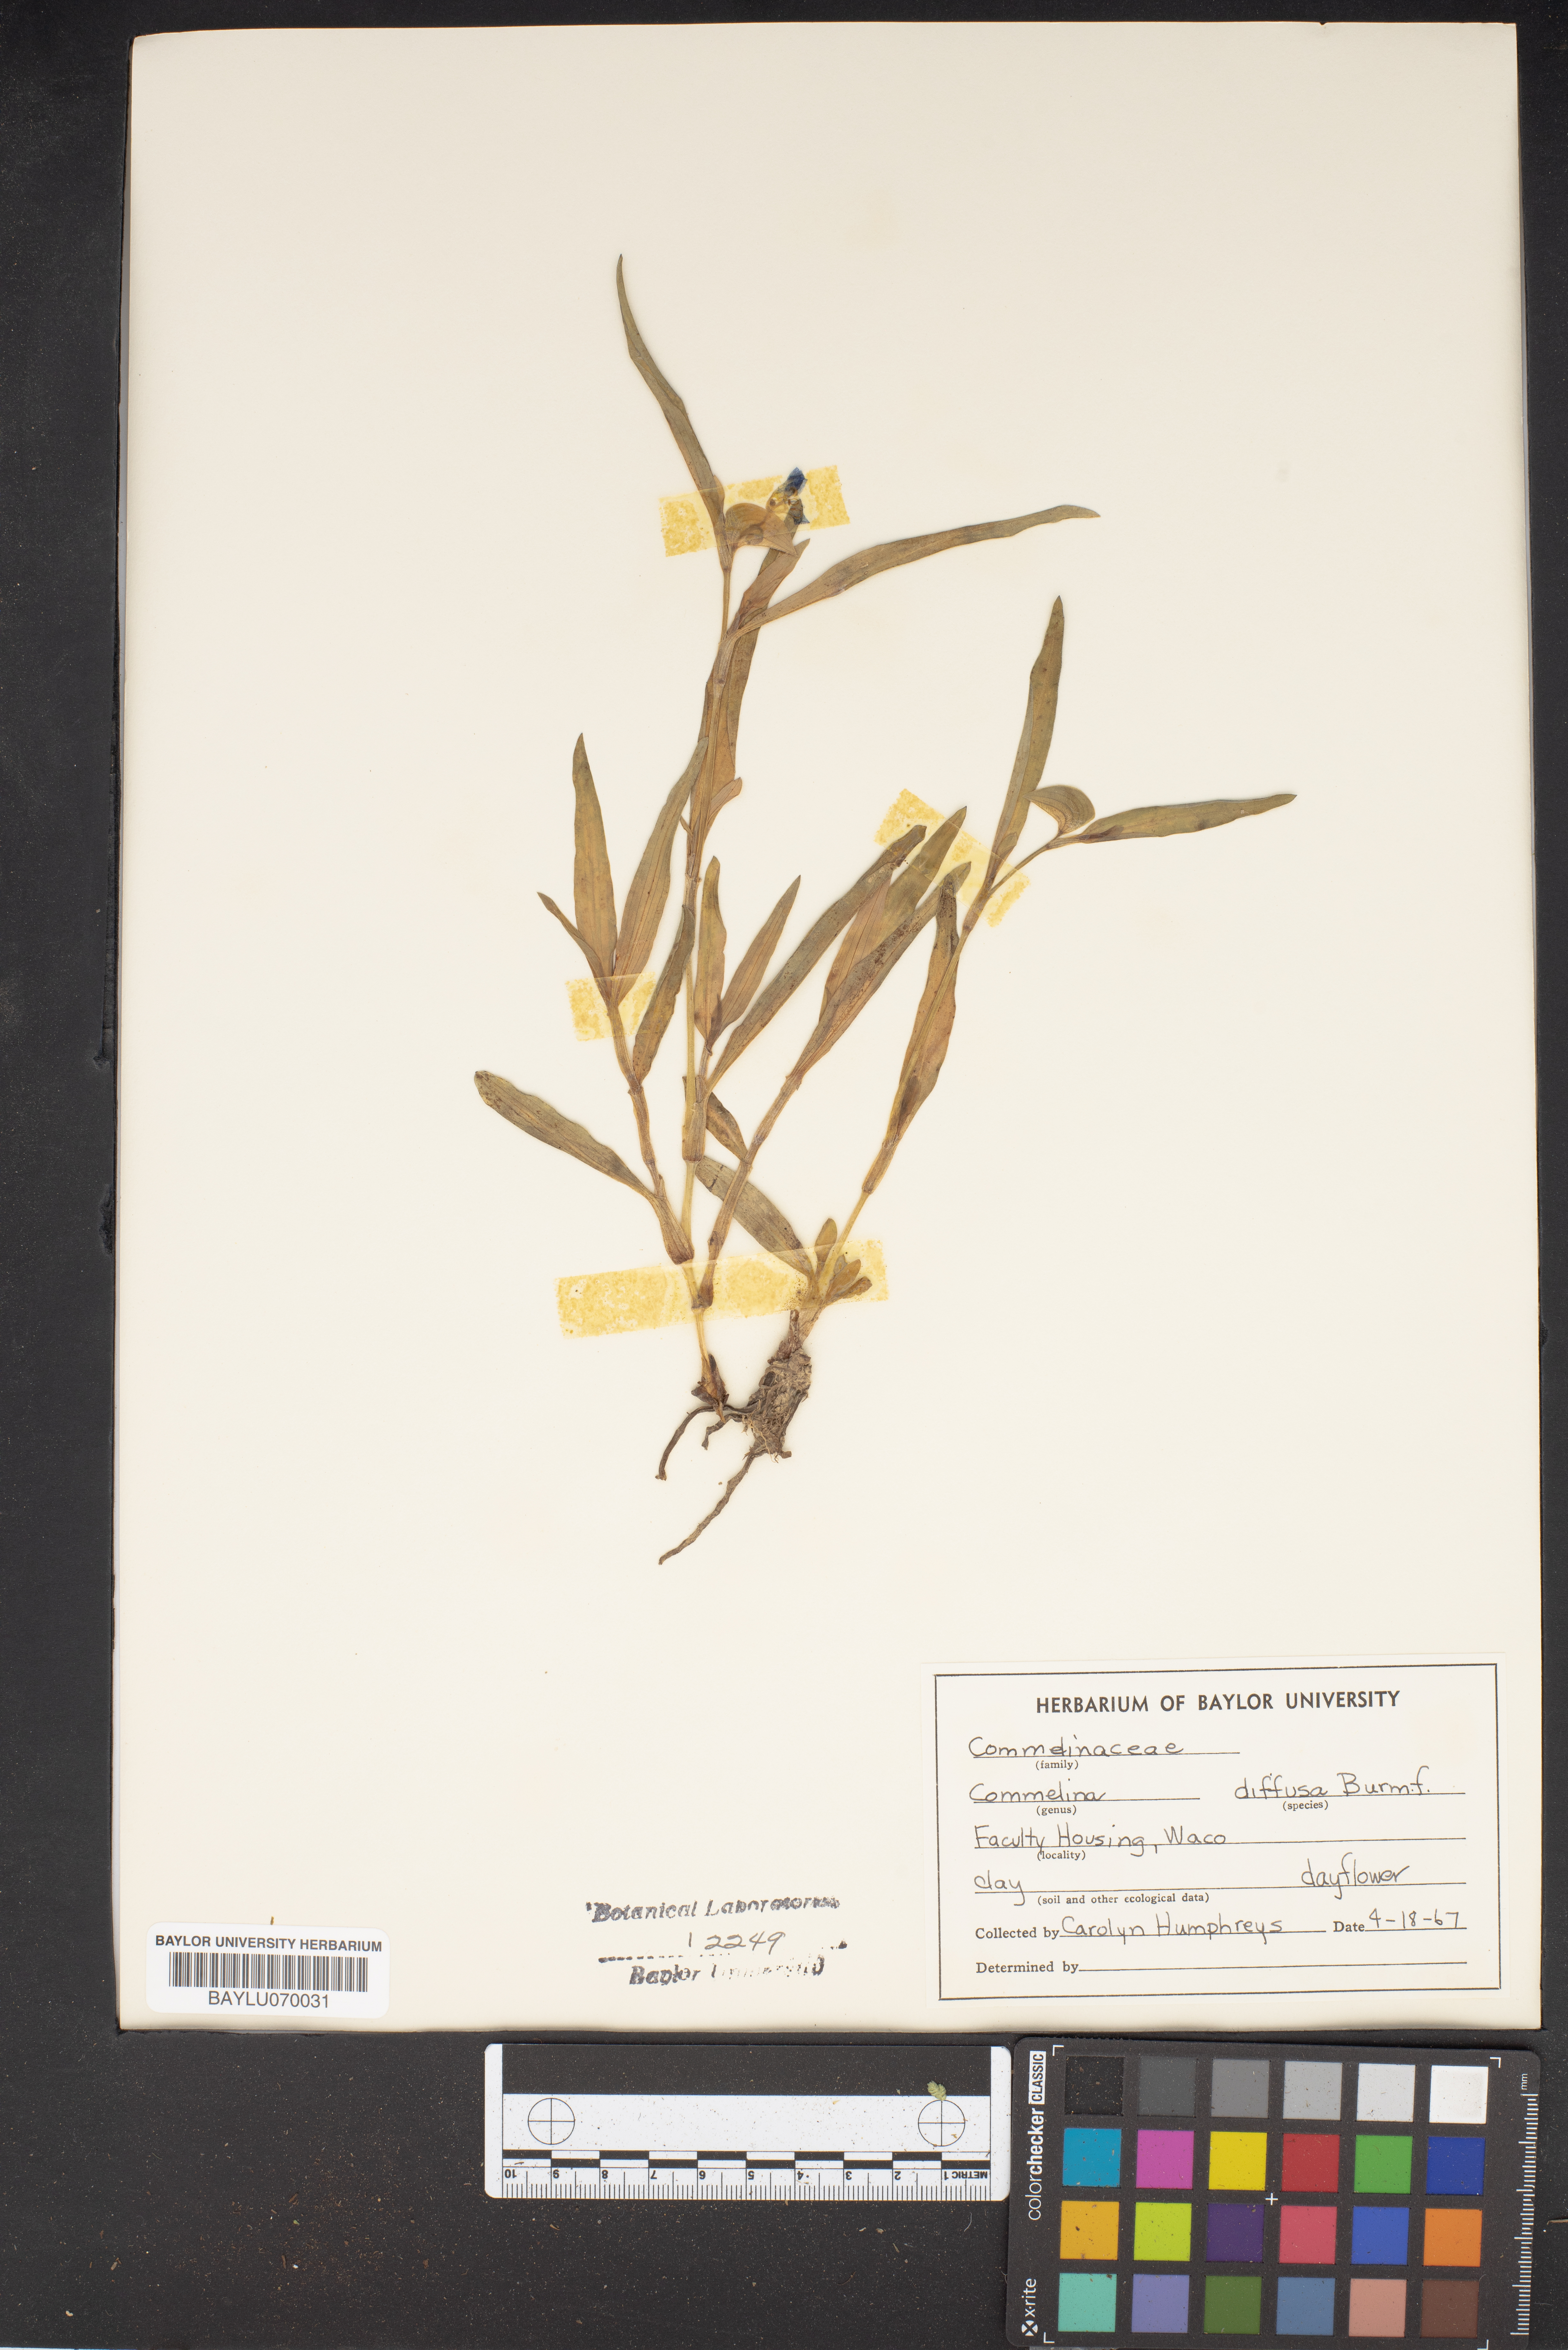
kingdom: Plantae
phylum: Tracheophyta
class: Liliopsida
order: Commelinales
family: Commelinaceae
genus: Commelina
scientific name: Commelina diffusa
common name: Climbing dayflower
